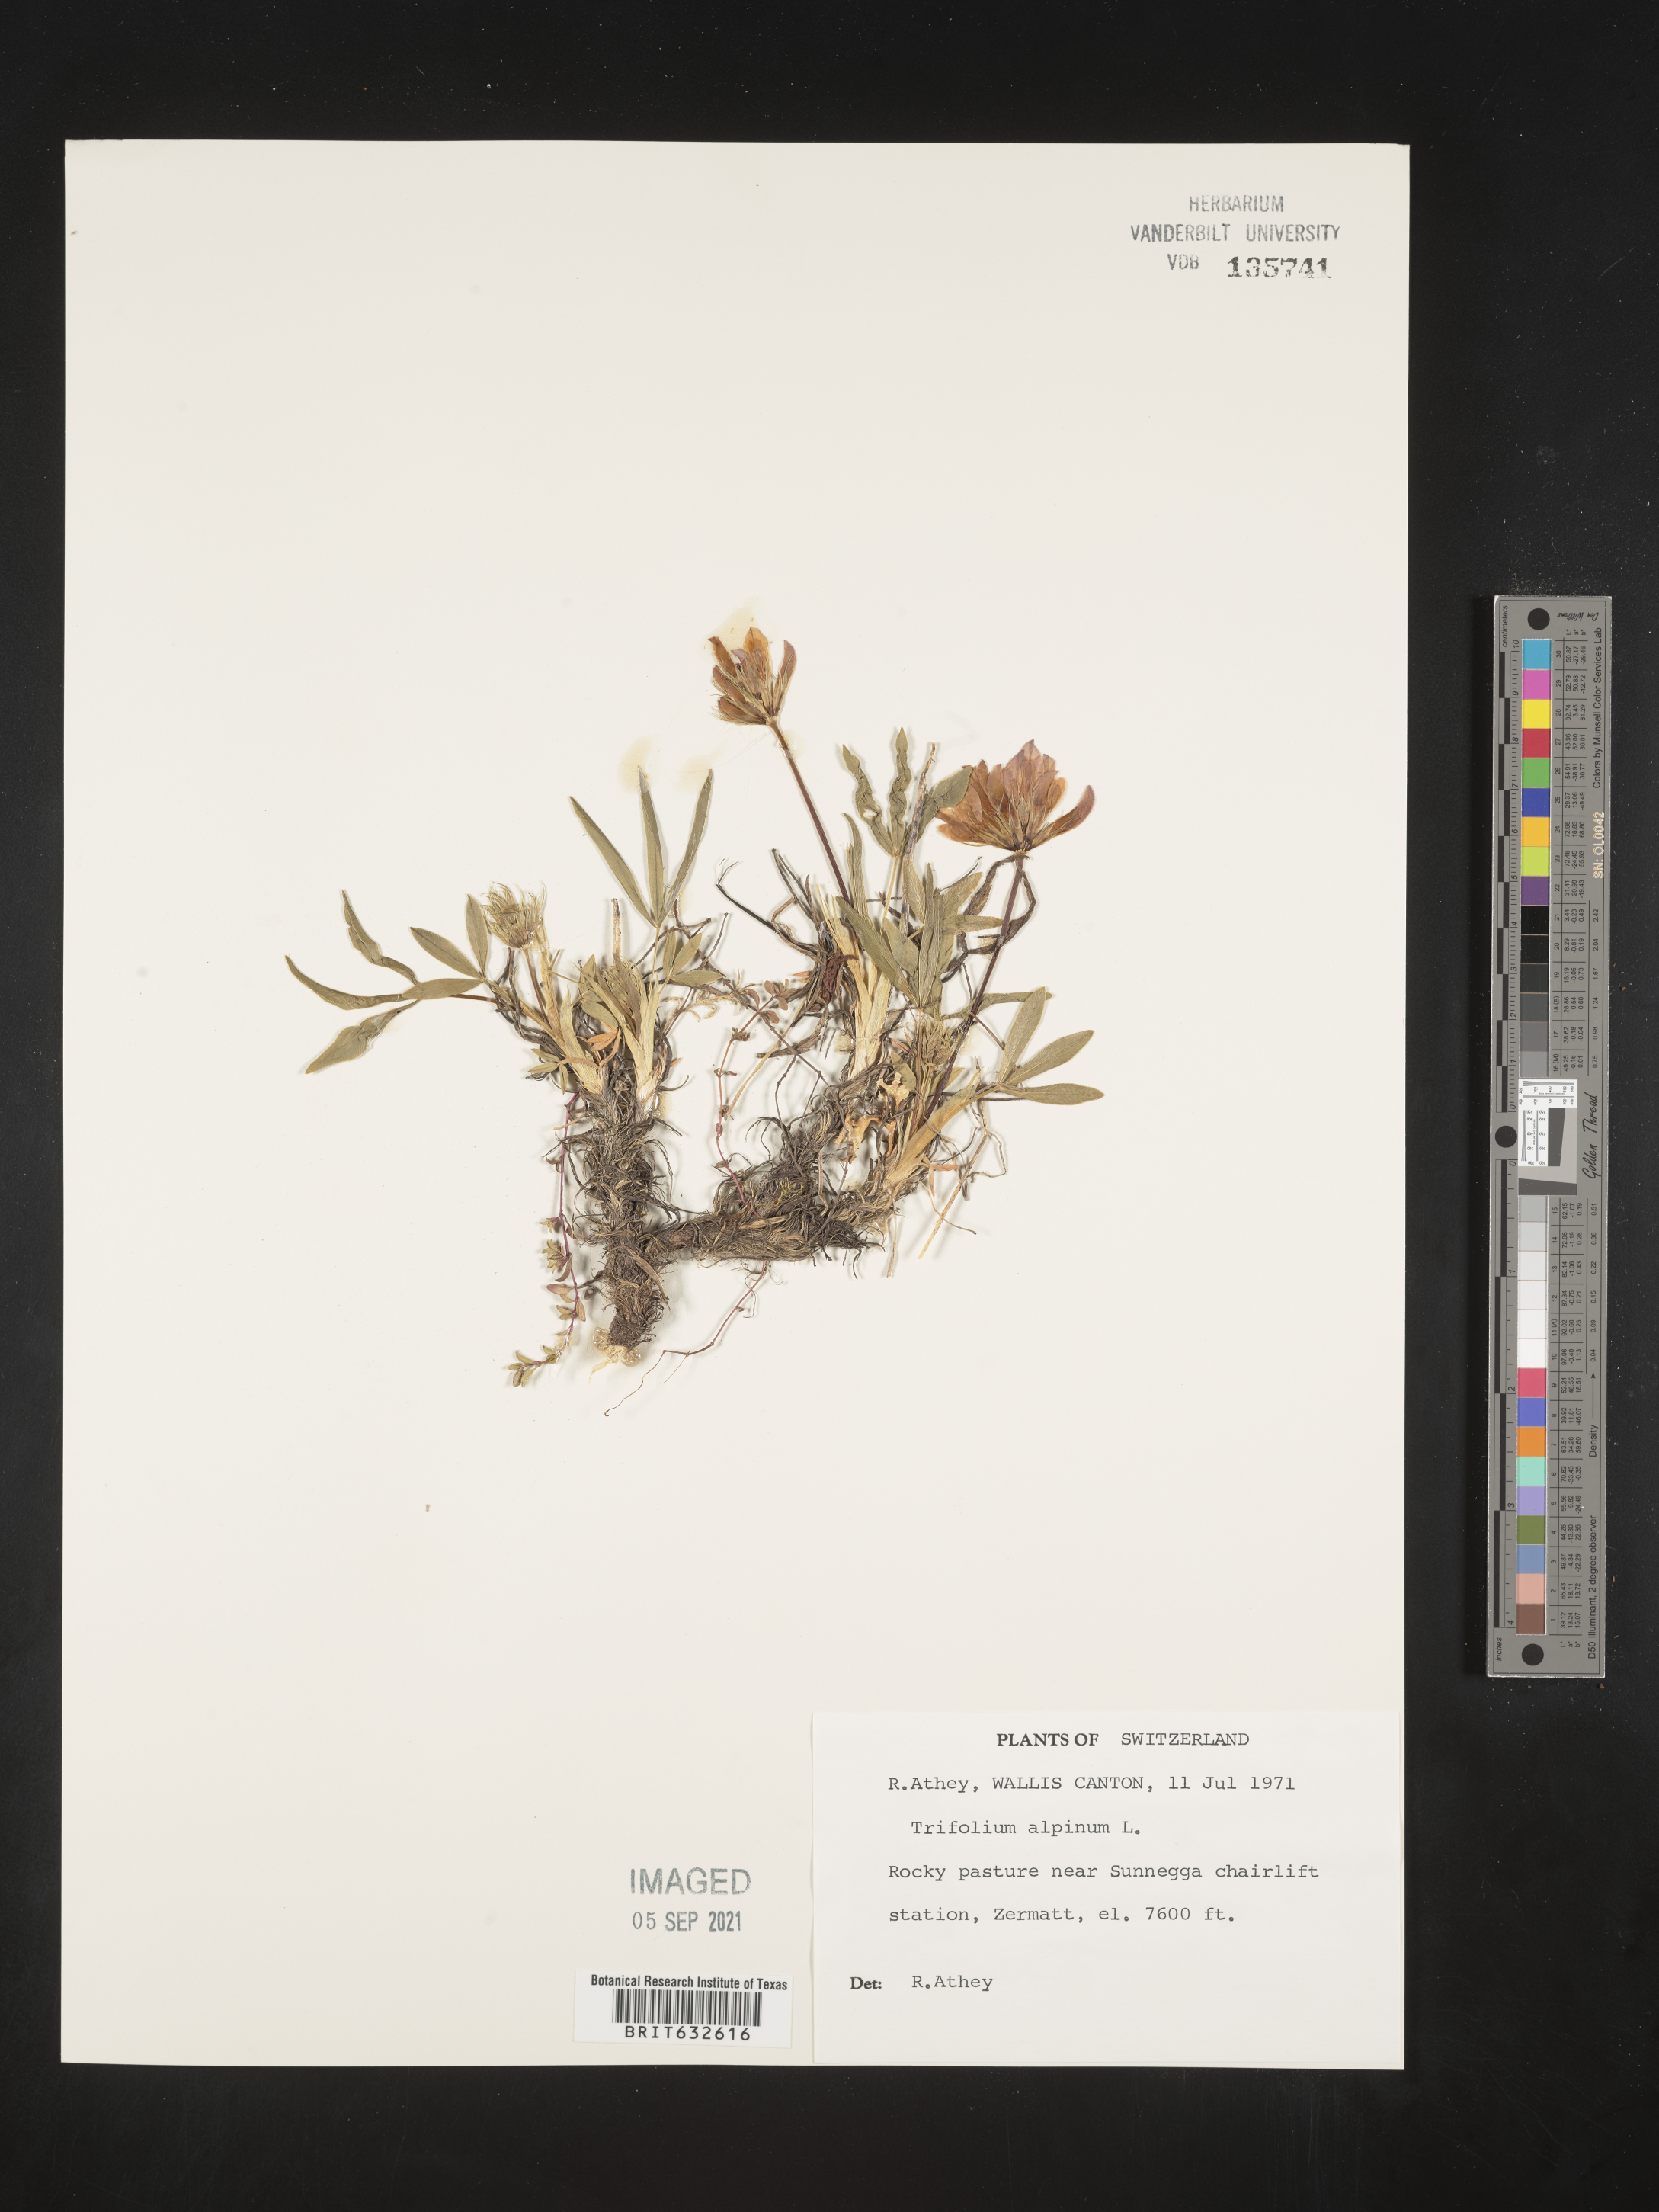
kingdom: Plantae
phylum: Tracheophyta
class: Magnoliopsida
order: Fabales
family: Fabaceae
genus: Trifolium
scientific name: Trifolium
